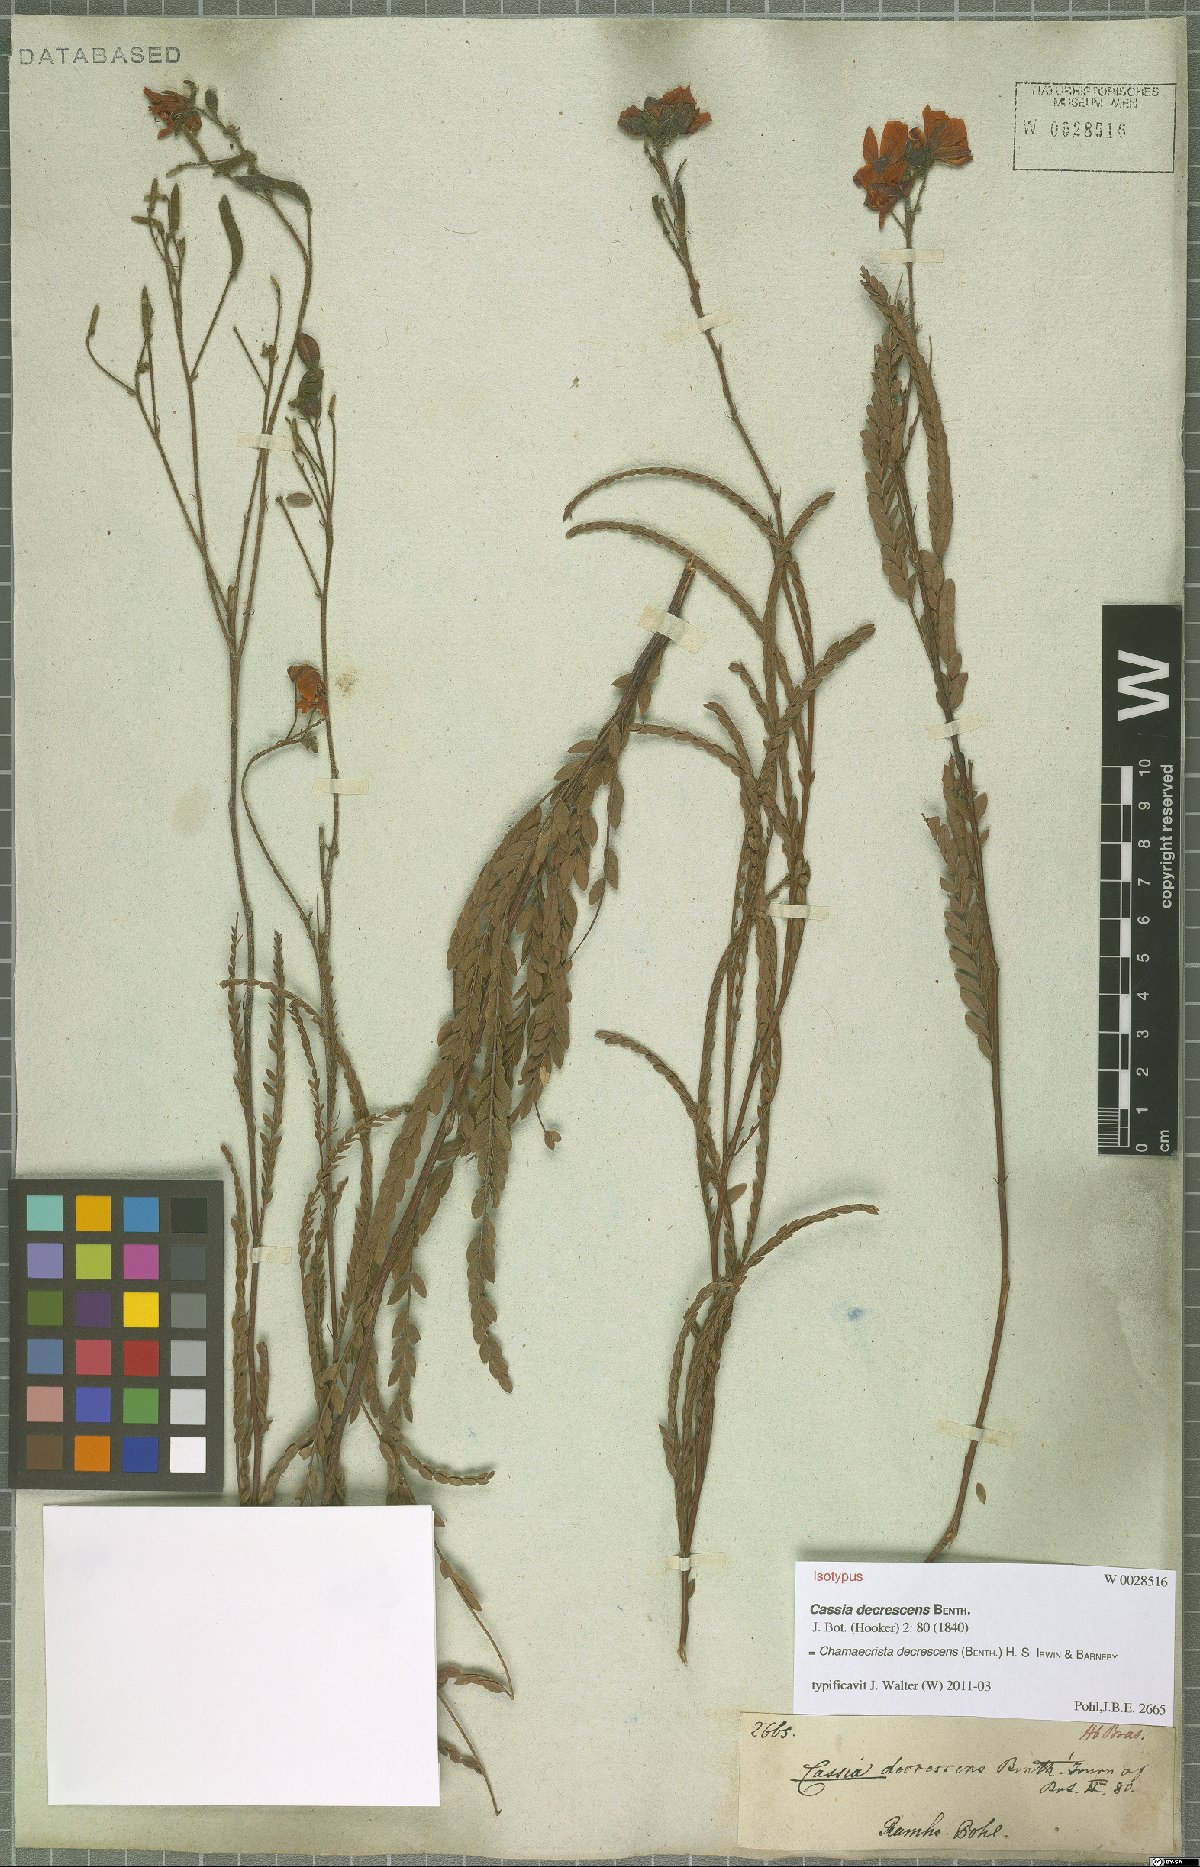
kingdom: Plantae
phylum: Tracheophyta
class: Magnoliopsida
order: Fabales
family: Fabaceae
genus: Chamaecrista
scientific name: Chamaecrista decrescens
